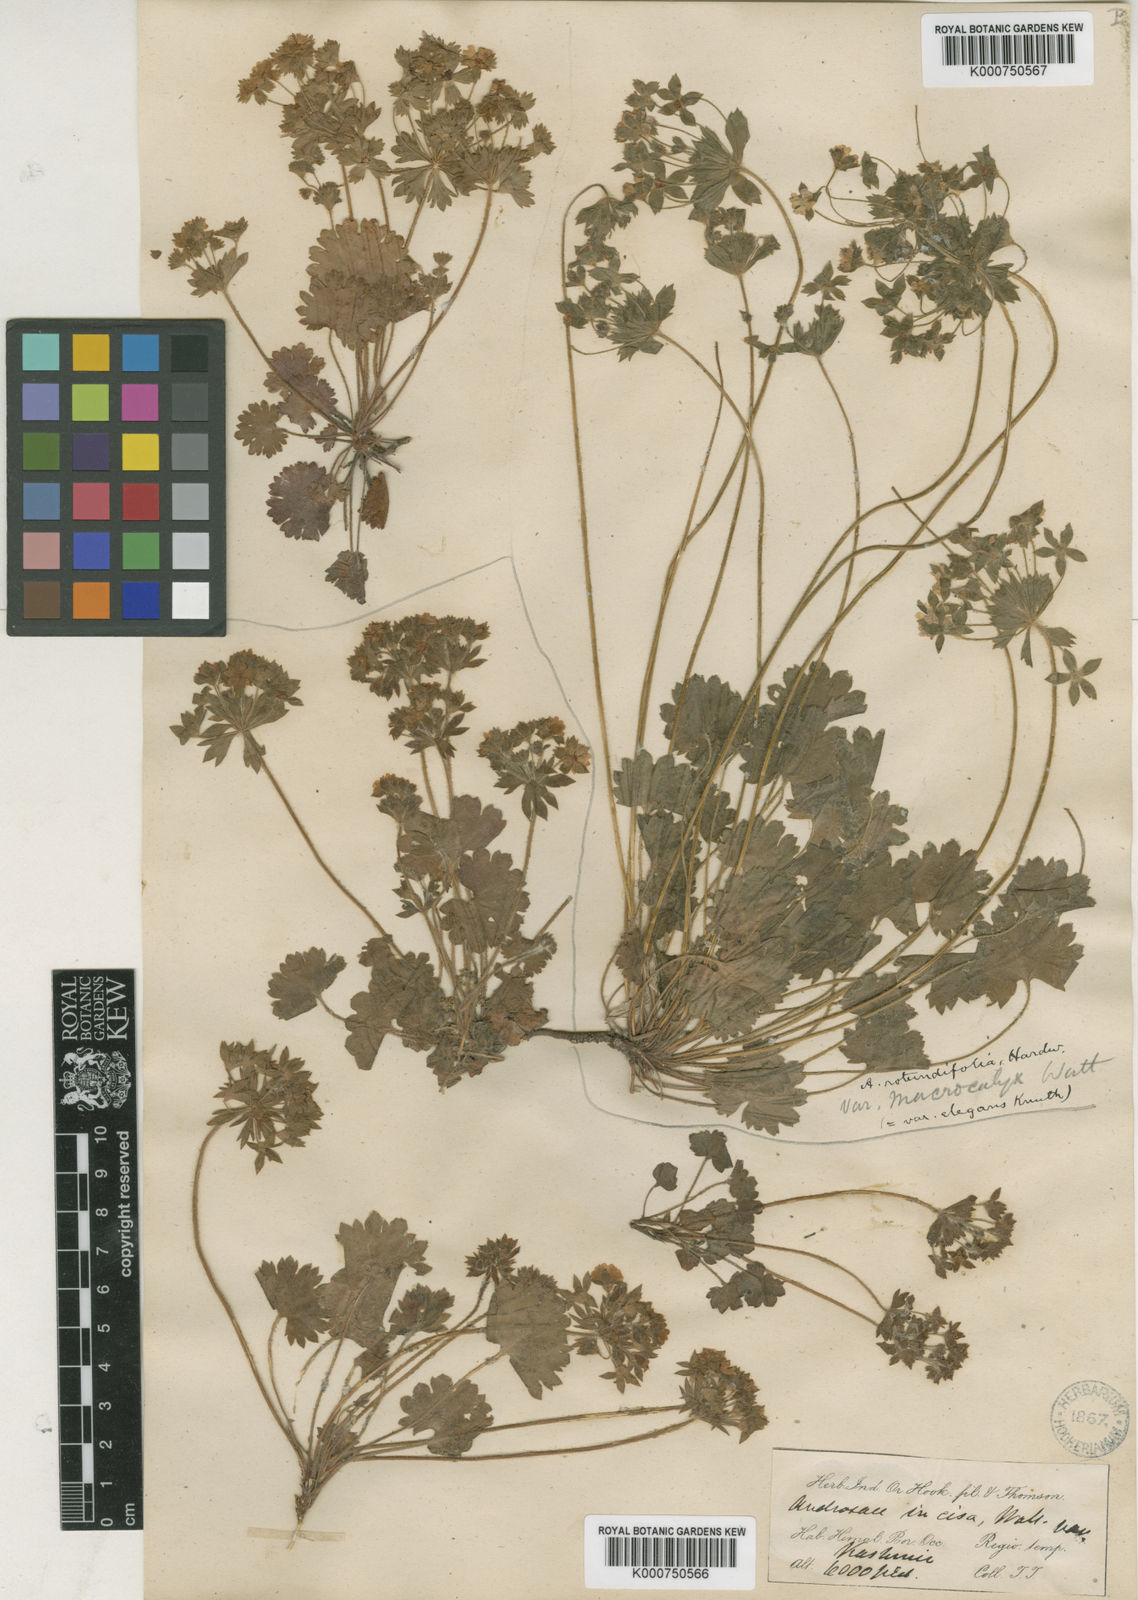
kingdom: Plantae
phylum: Tracheophyta
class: Magnoliopsida
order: Ericales
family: Primulaceae
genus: Androsace
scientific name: Androsace rotundifolia
